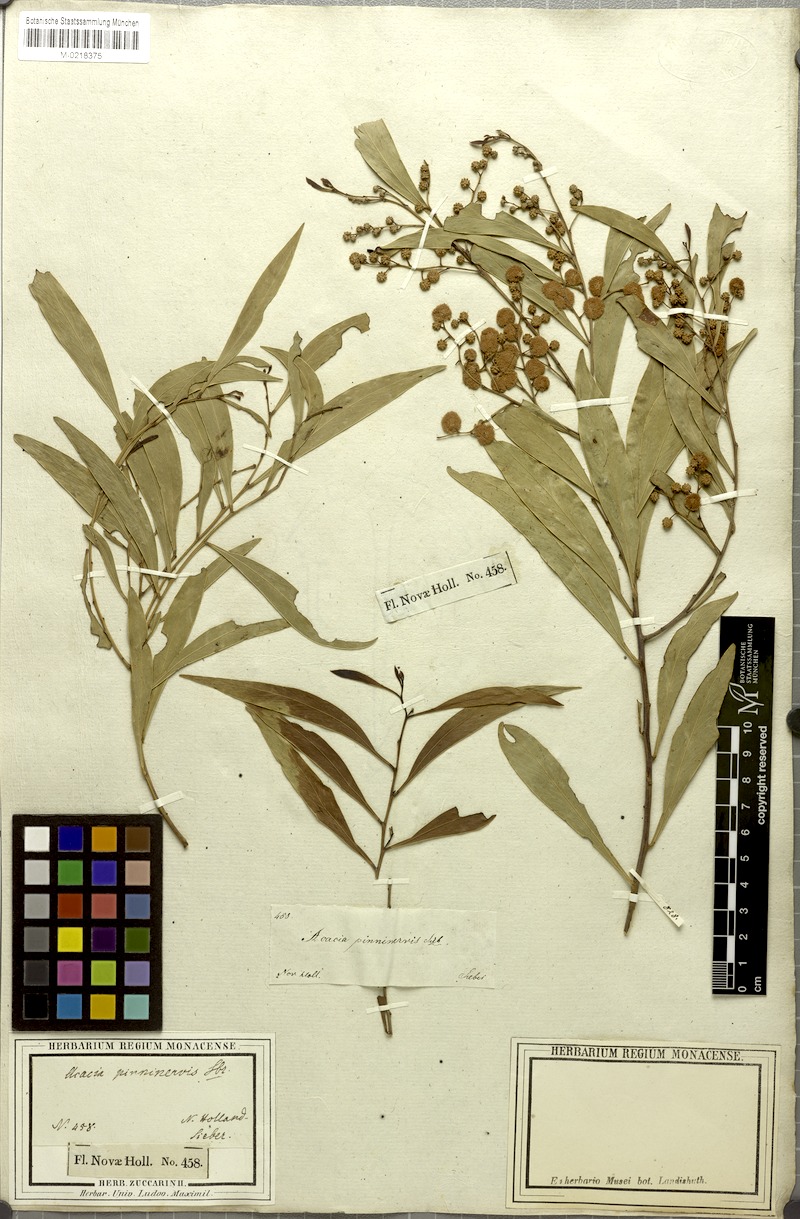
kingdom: Plantae
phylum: Tracheophyta
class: Magnoliopsida
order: Fabales
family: Fabaceae
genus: Acacia
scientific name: Acacia penninervis
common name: Hickory wattle
